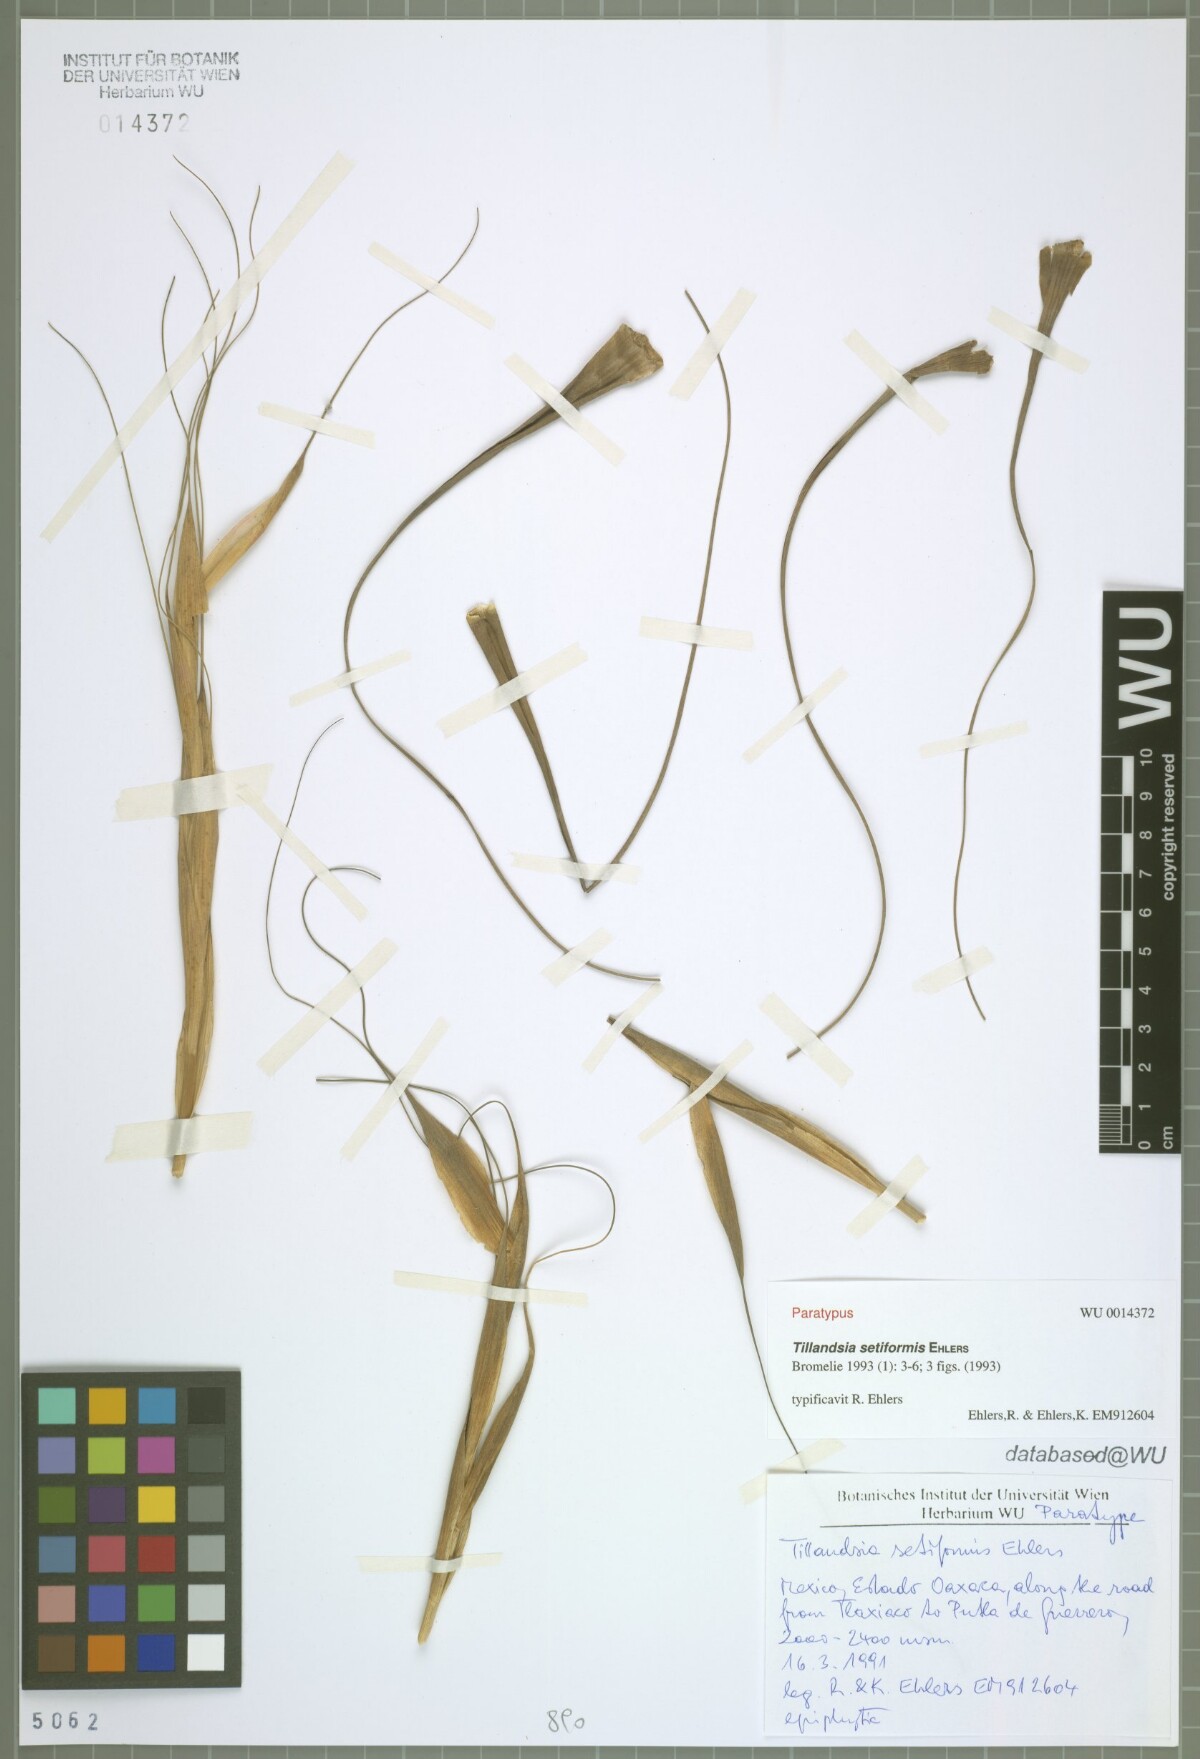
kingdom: Plantae
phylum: Tracheophyta
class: Liliopsida
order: Poales
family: Bromeliaceae
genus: Tillandsia
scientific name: Tillandsia setiformis
